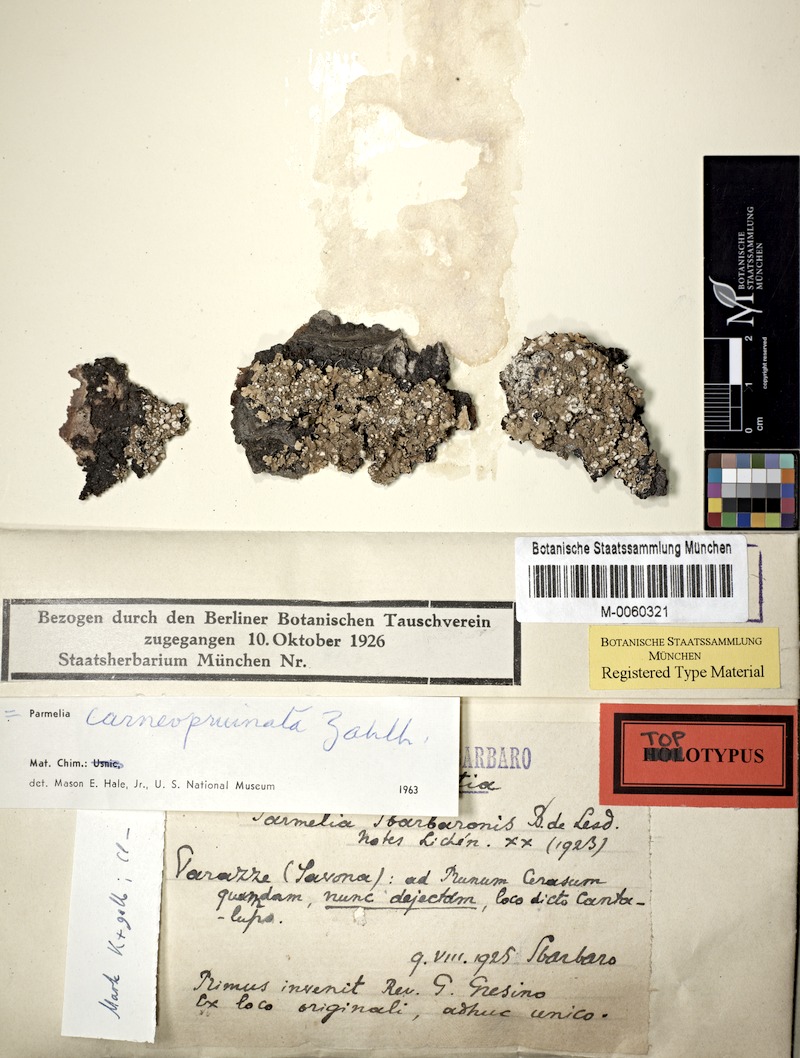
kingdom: Fungi
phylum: Ascomycota
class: Lecanoromycetes
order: Lecanorales
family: Parmeliaceae
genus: Crespoa
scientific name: Crespoa carneopruinata
